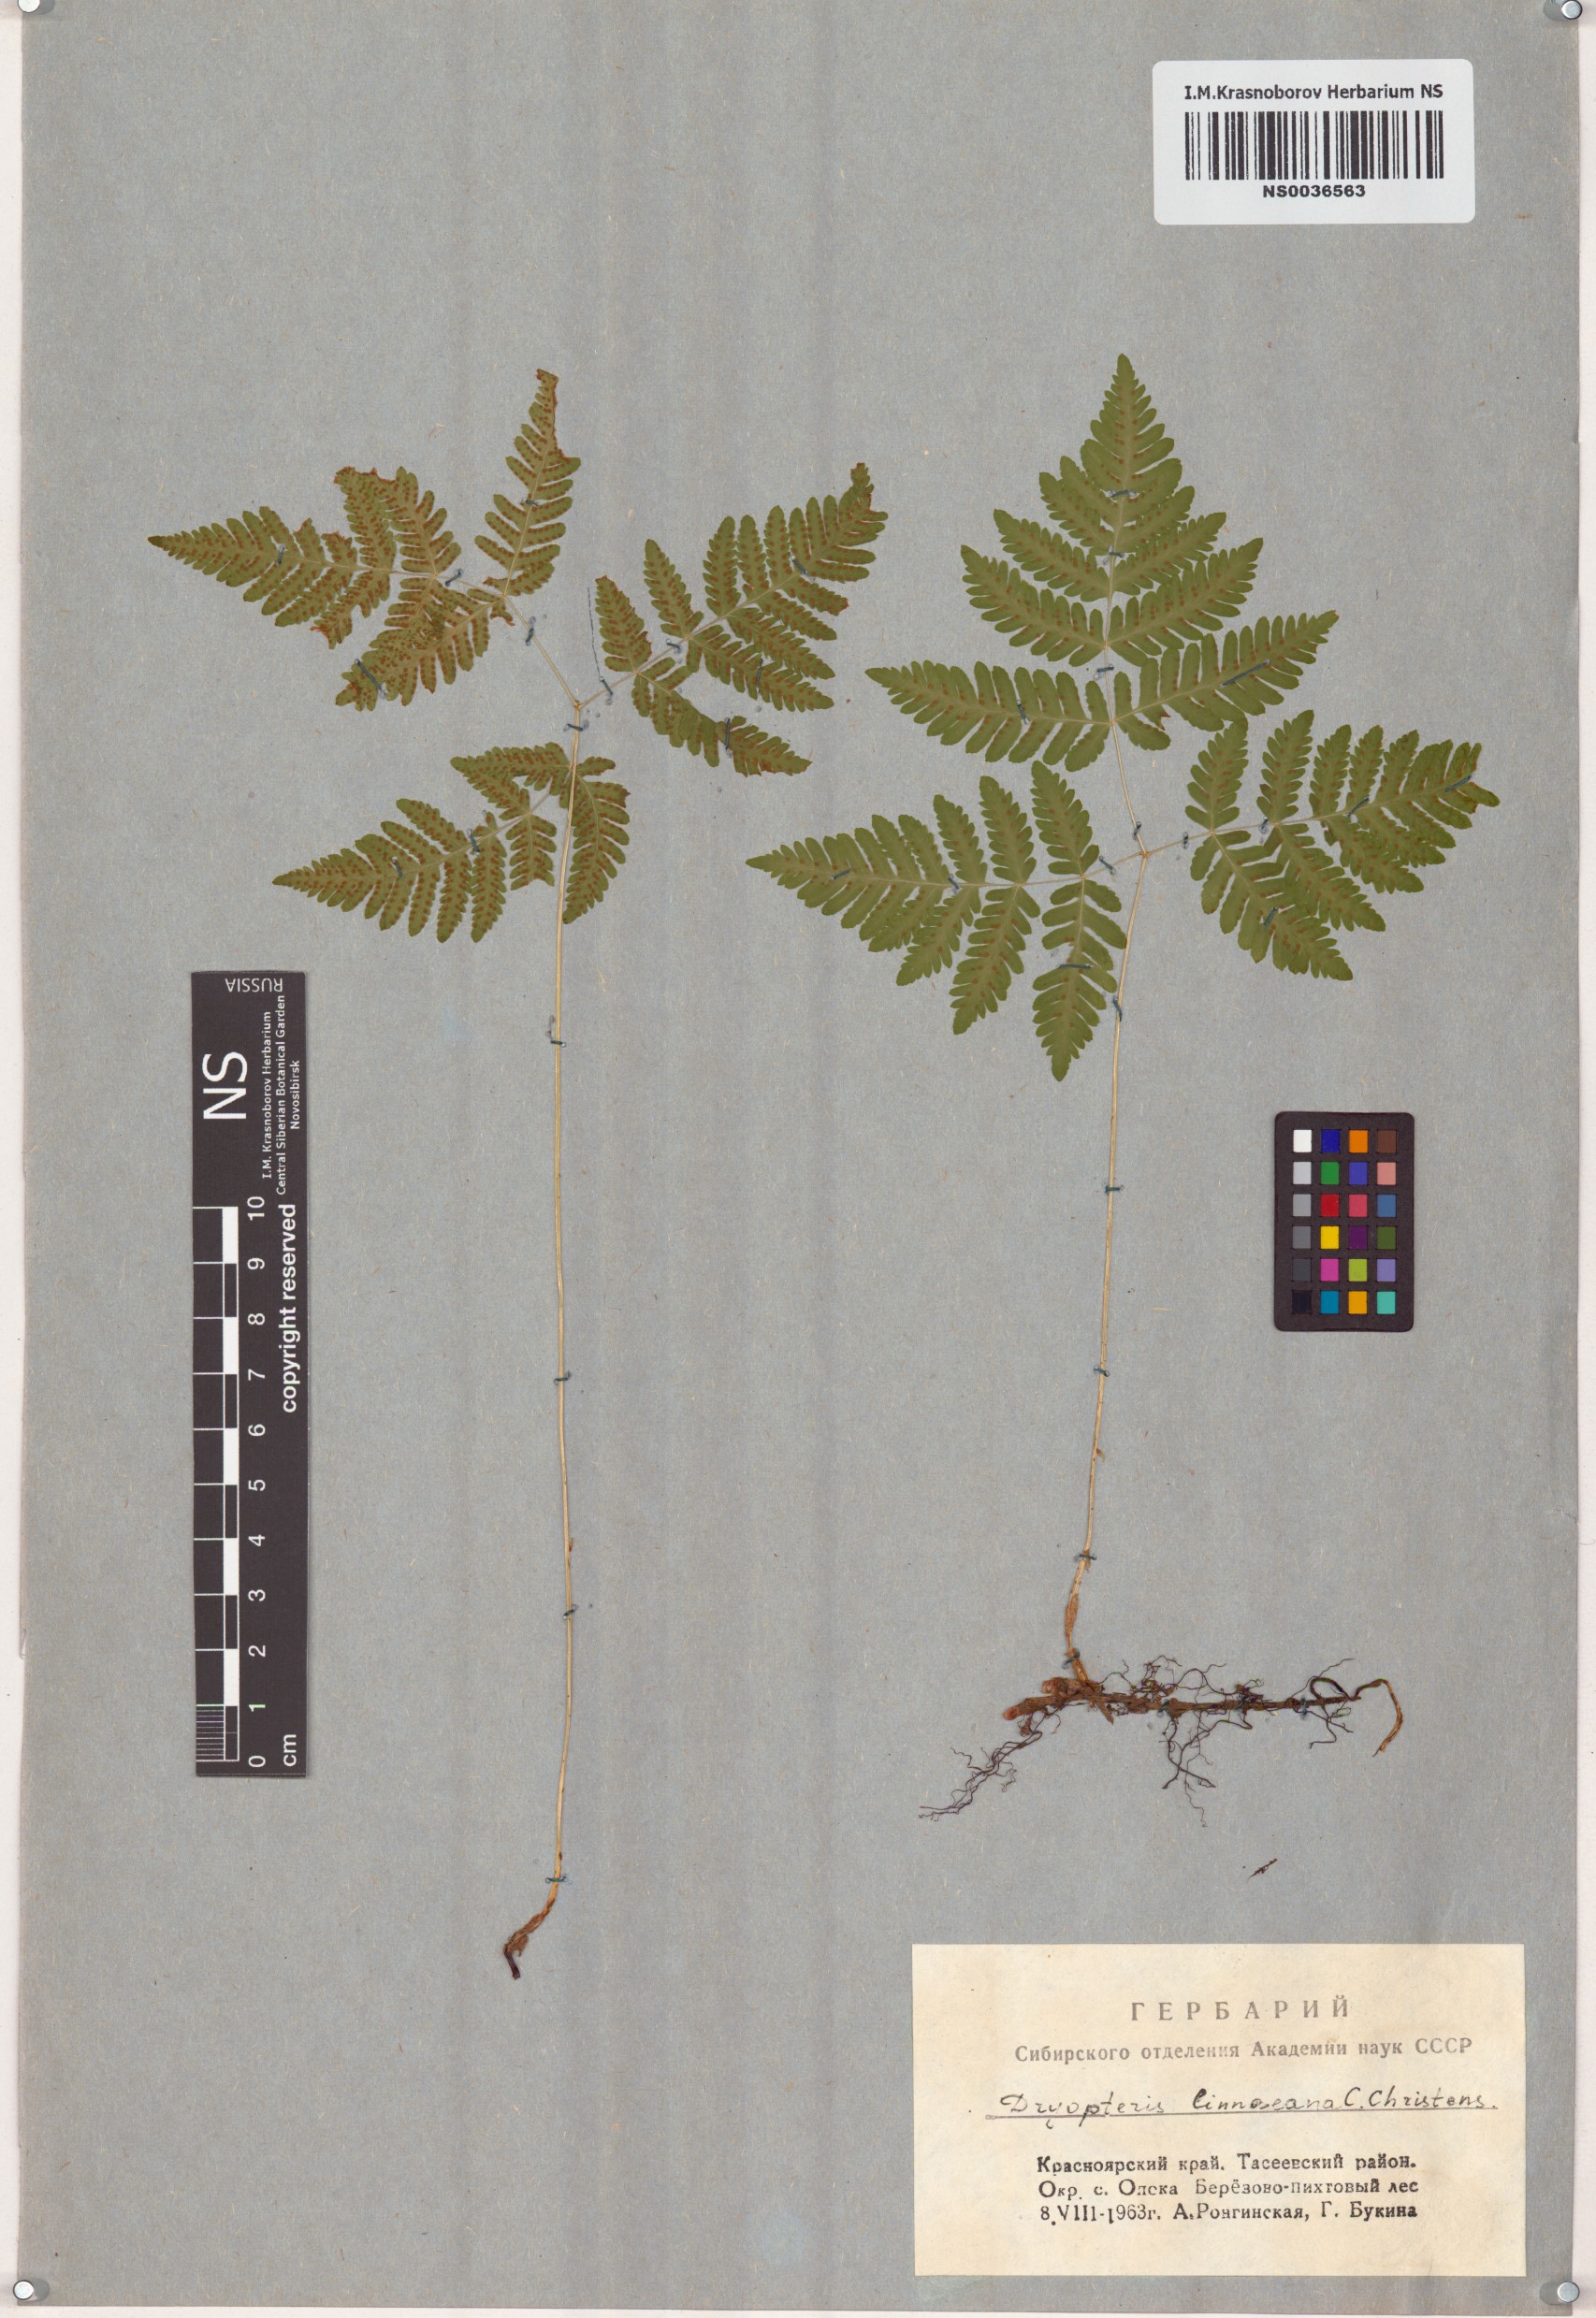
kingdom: Plantae
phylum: Tracheophyta
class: Polypodiopsida
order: Polypodiales
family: Cystopteridaceae
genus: Gymnocarpium
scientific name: Gymnocarpium dryopteris
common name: Oak fern
